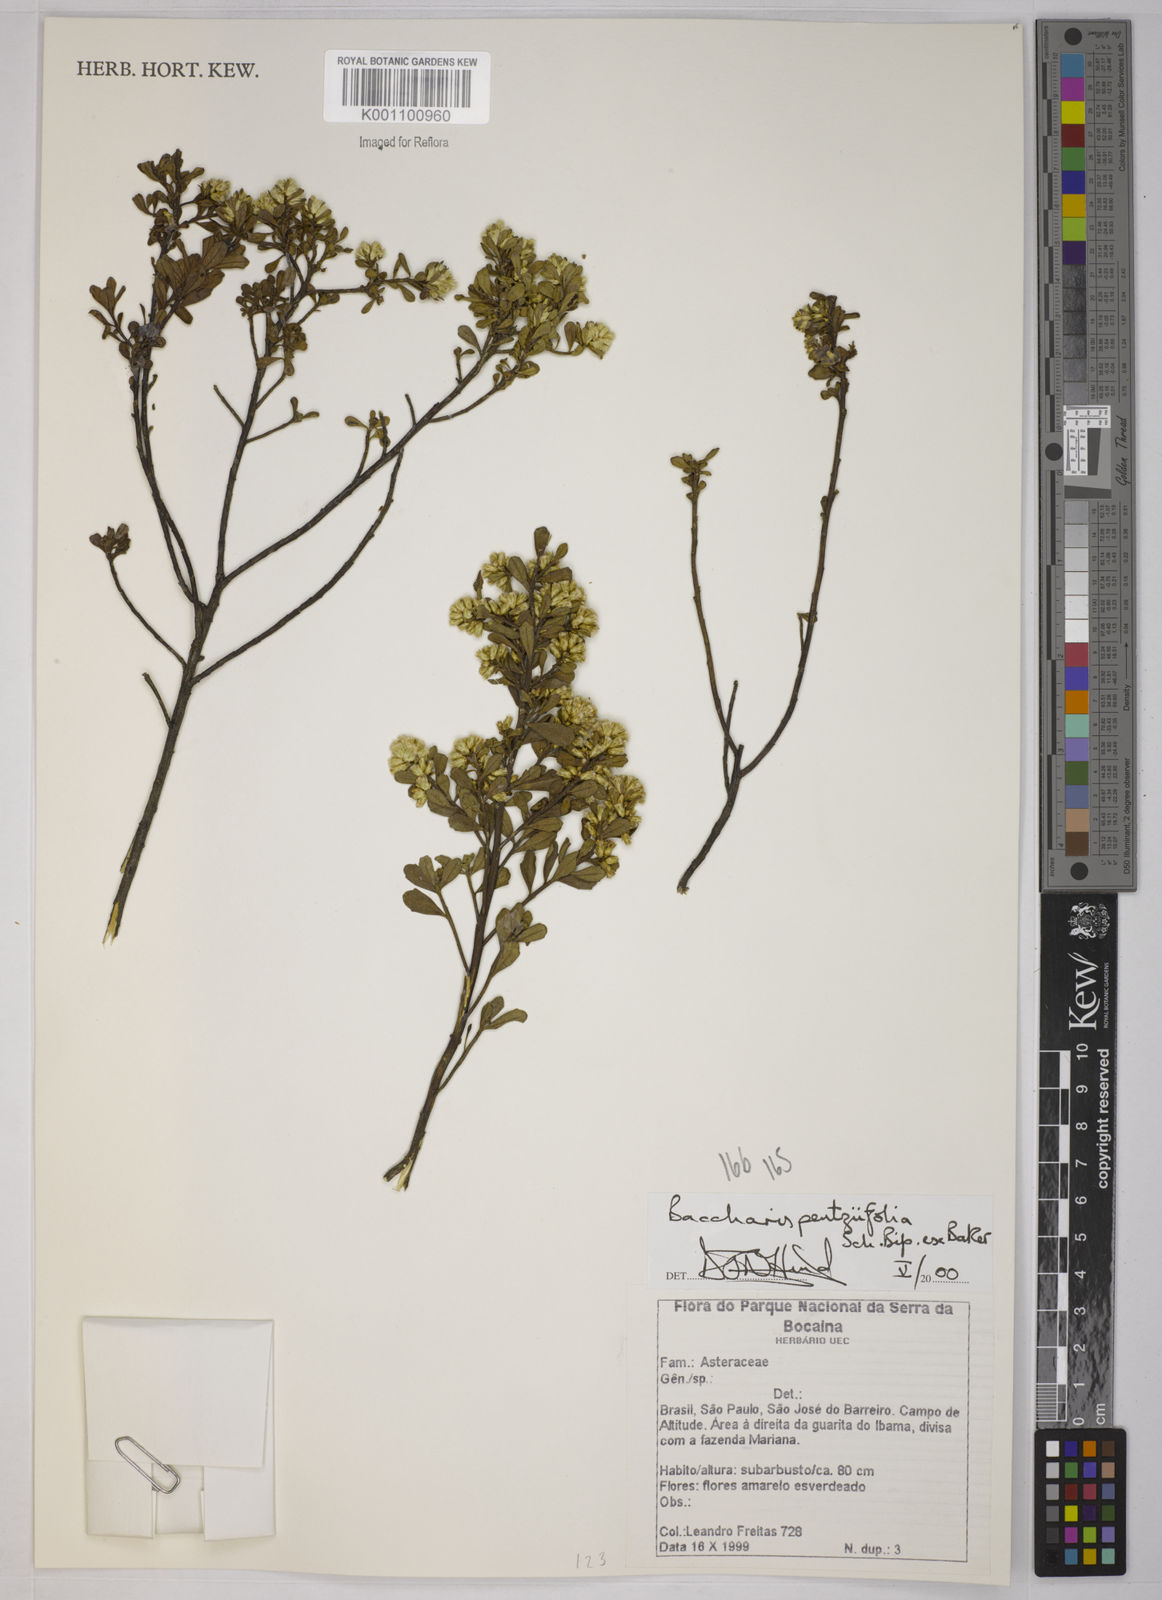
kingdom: Plantae
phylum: Tracheophyta
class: Magnoliopsida
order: Asterales
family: Asteraceae
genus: Baccharis
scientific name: Baccharis pentziifolia
